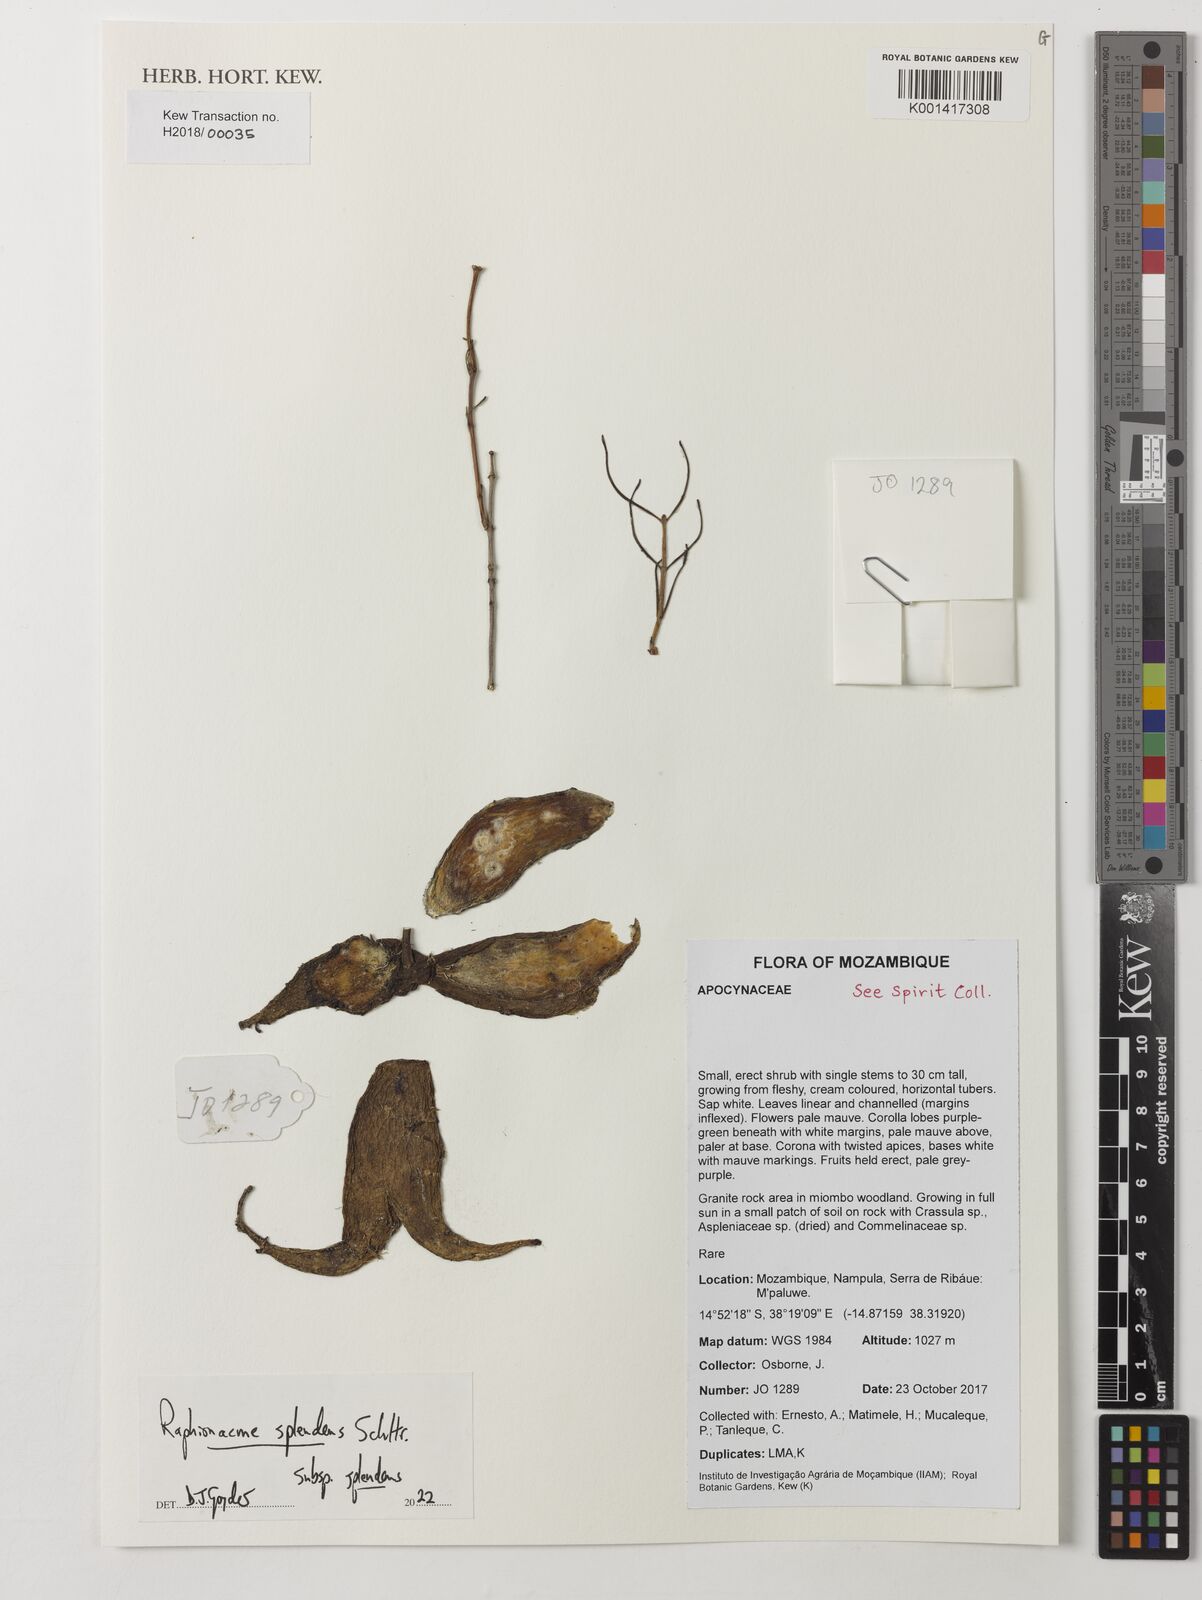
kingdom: Plantae
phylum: Tracheophyta
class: Magnoliopsida
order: Gentianales
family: Apocynaceae
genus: Raphionacme
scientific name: Raphionacme splendens
